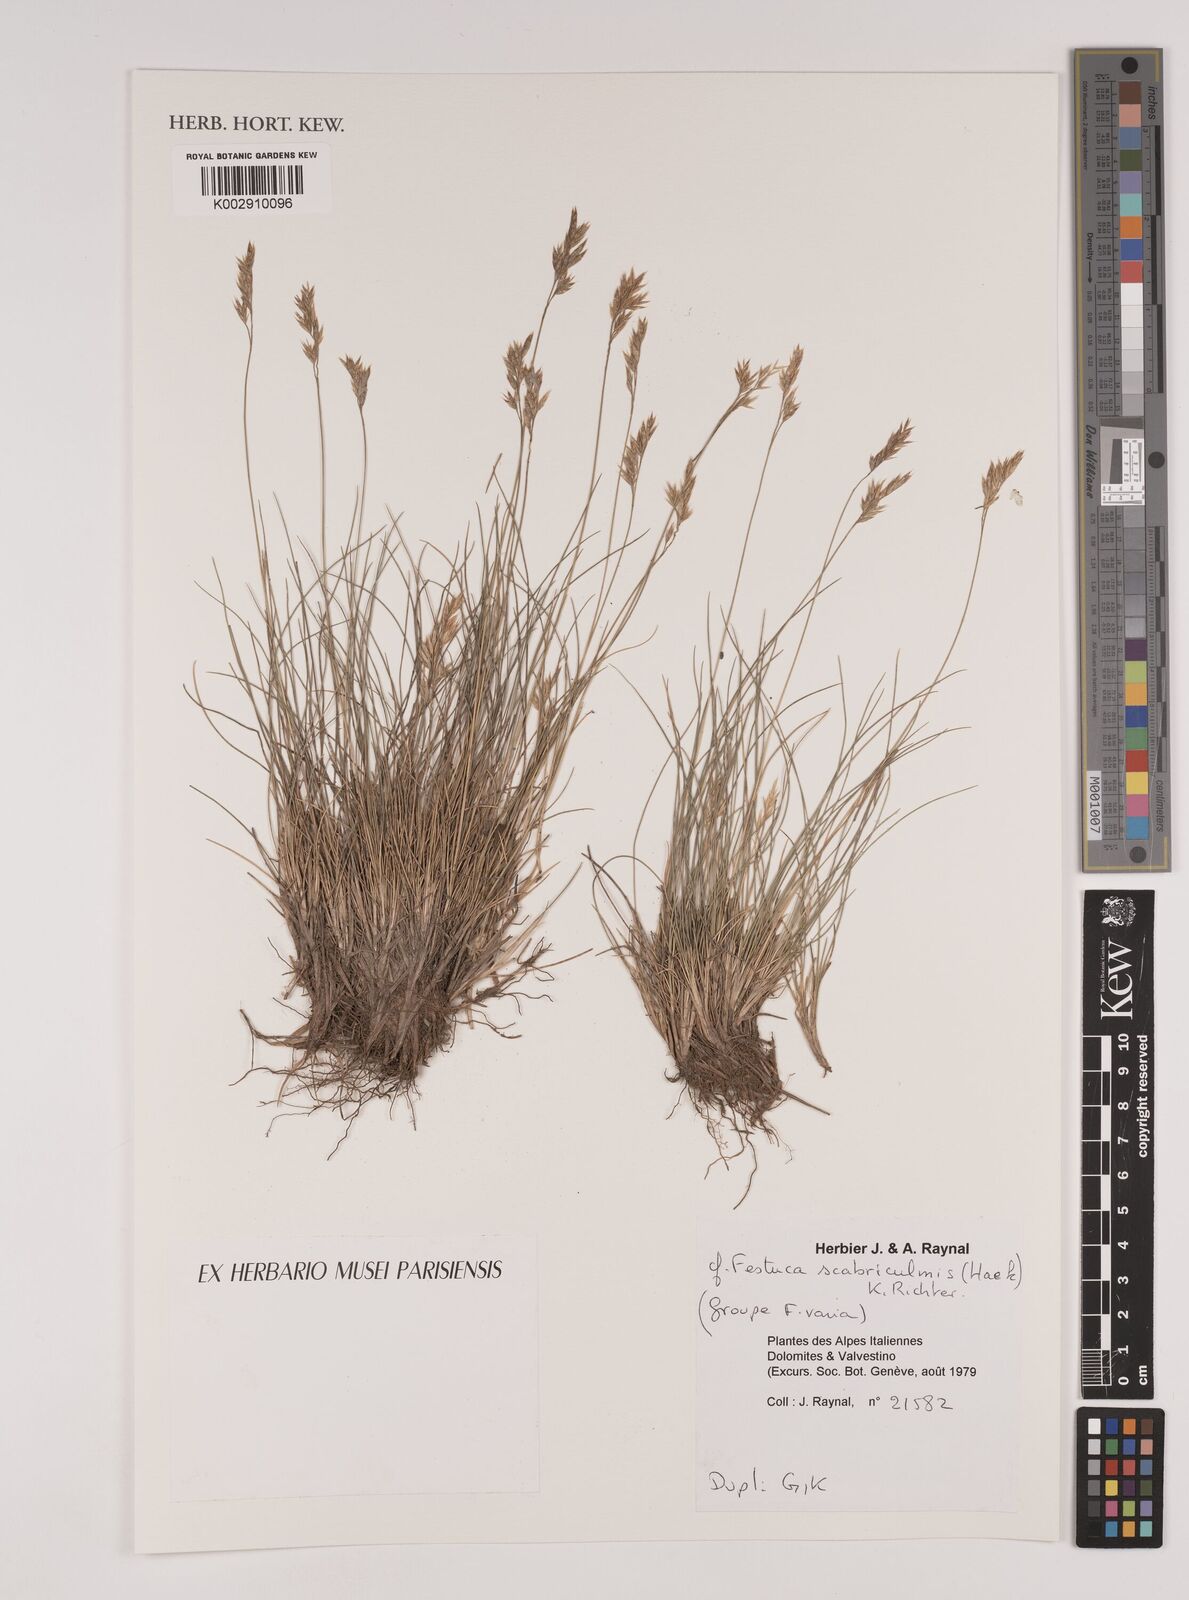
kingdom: Plantae
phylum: Tracheophyta
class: Liliopsida
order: Poales
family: Poaceae
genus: Festuca
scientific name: Festuca scabriculmis
